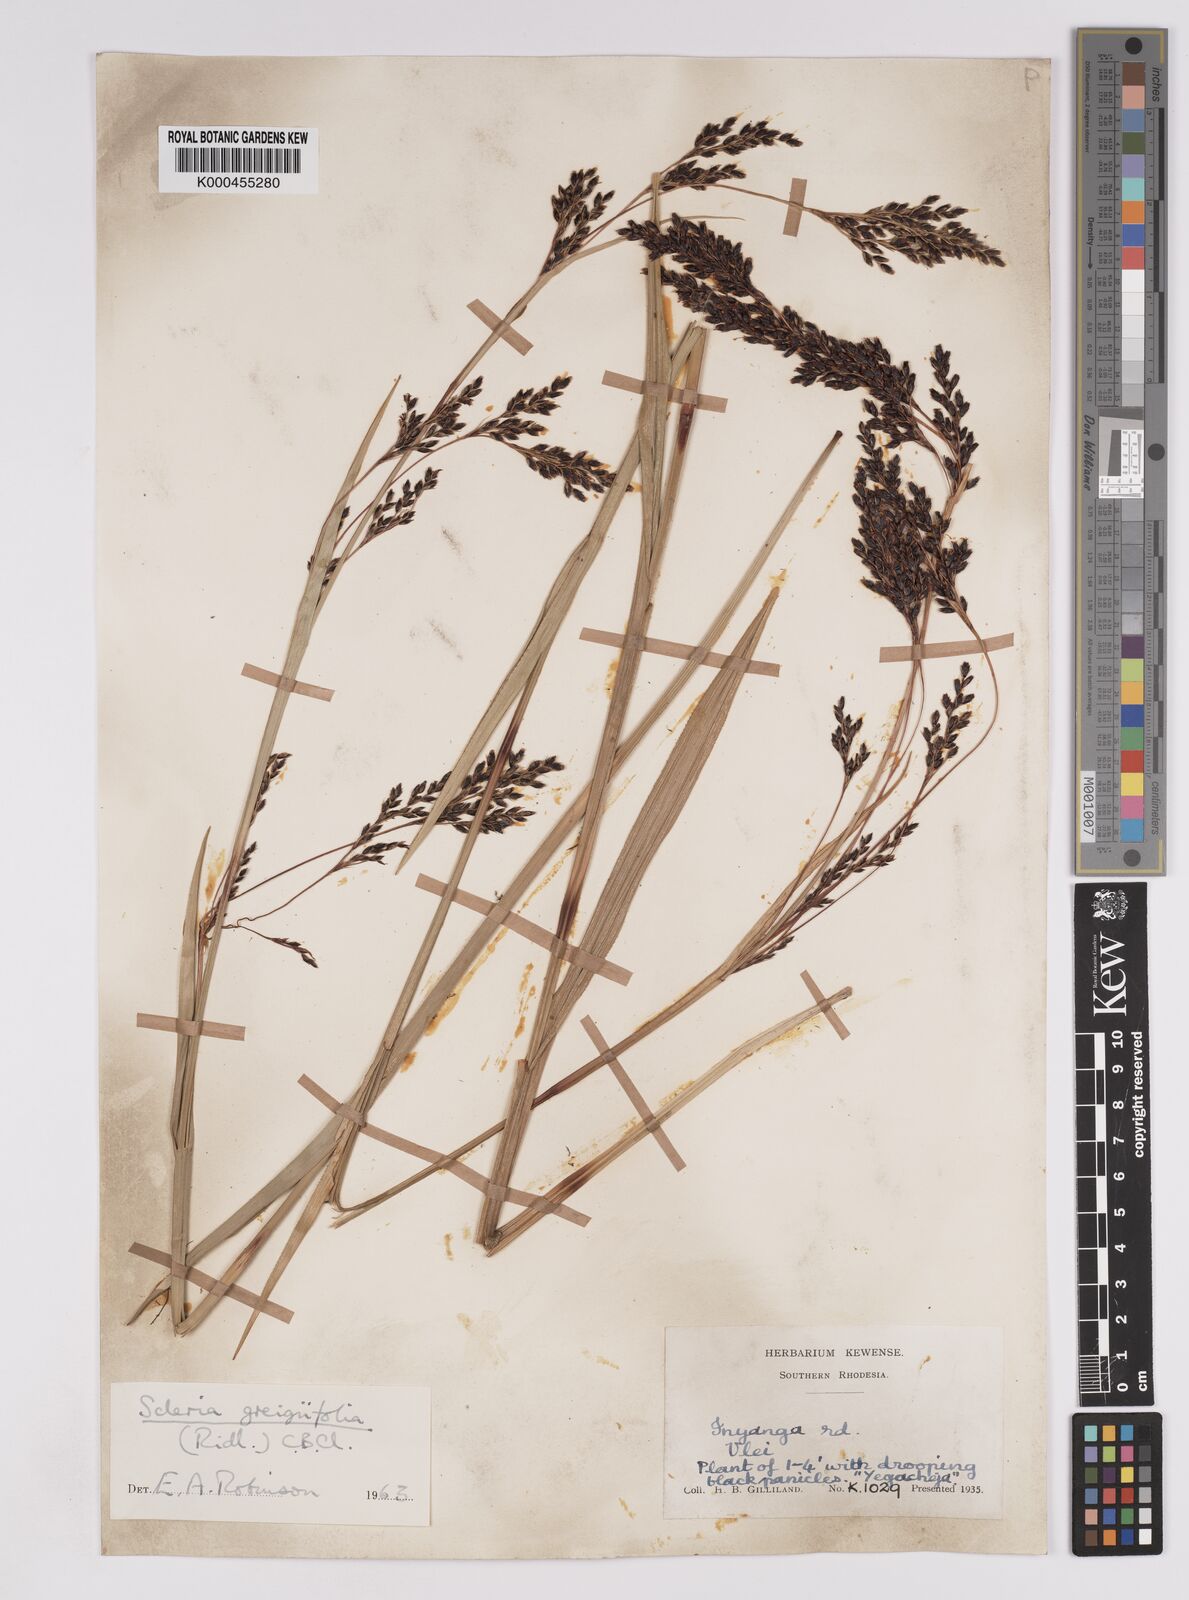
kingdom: Plantae
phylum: Tracheophyta
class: Liliopsida
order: Poales
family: Cyperaceae
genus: Scleria
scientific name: Scleria greigiifolia
